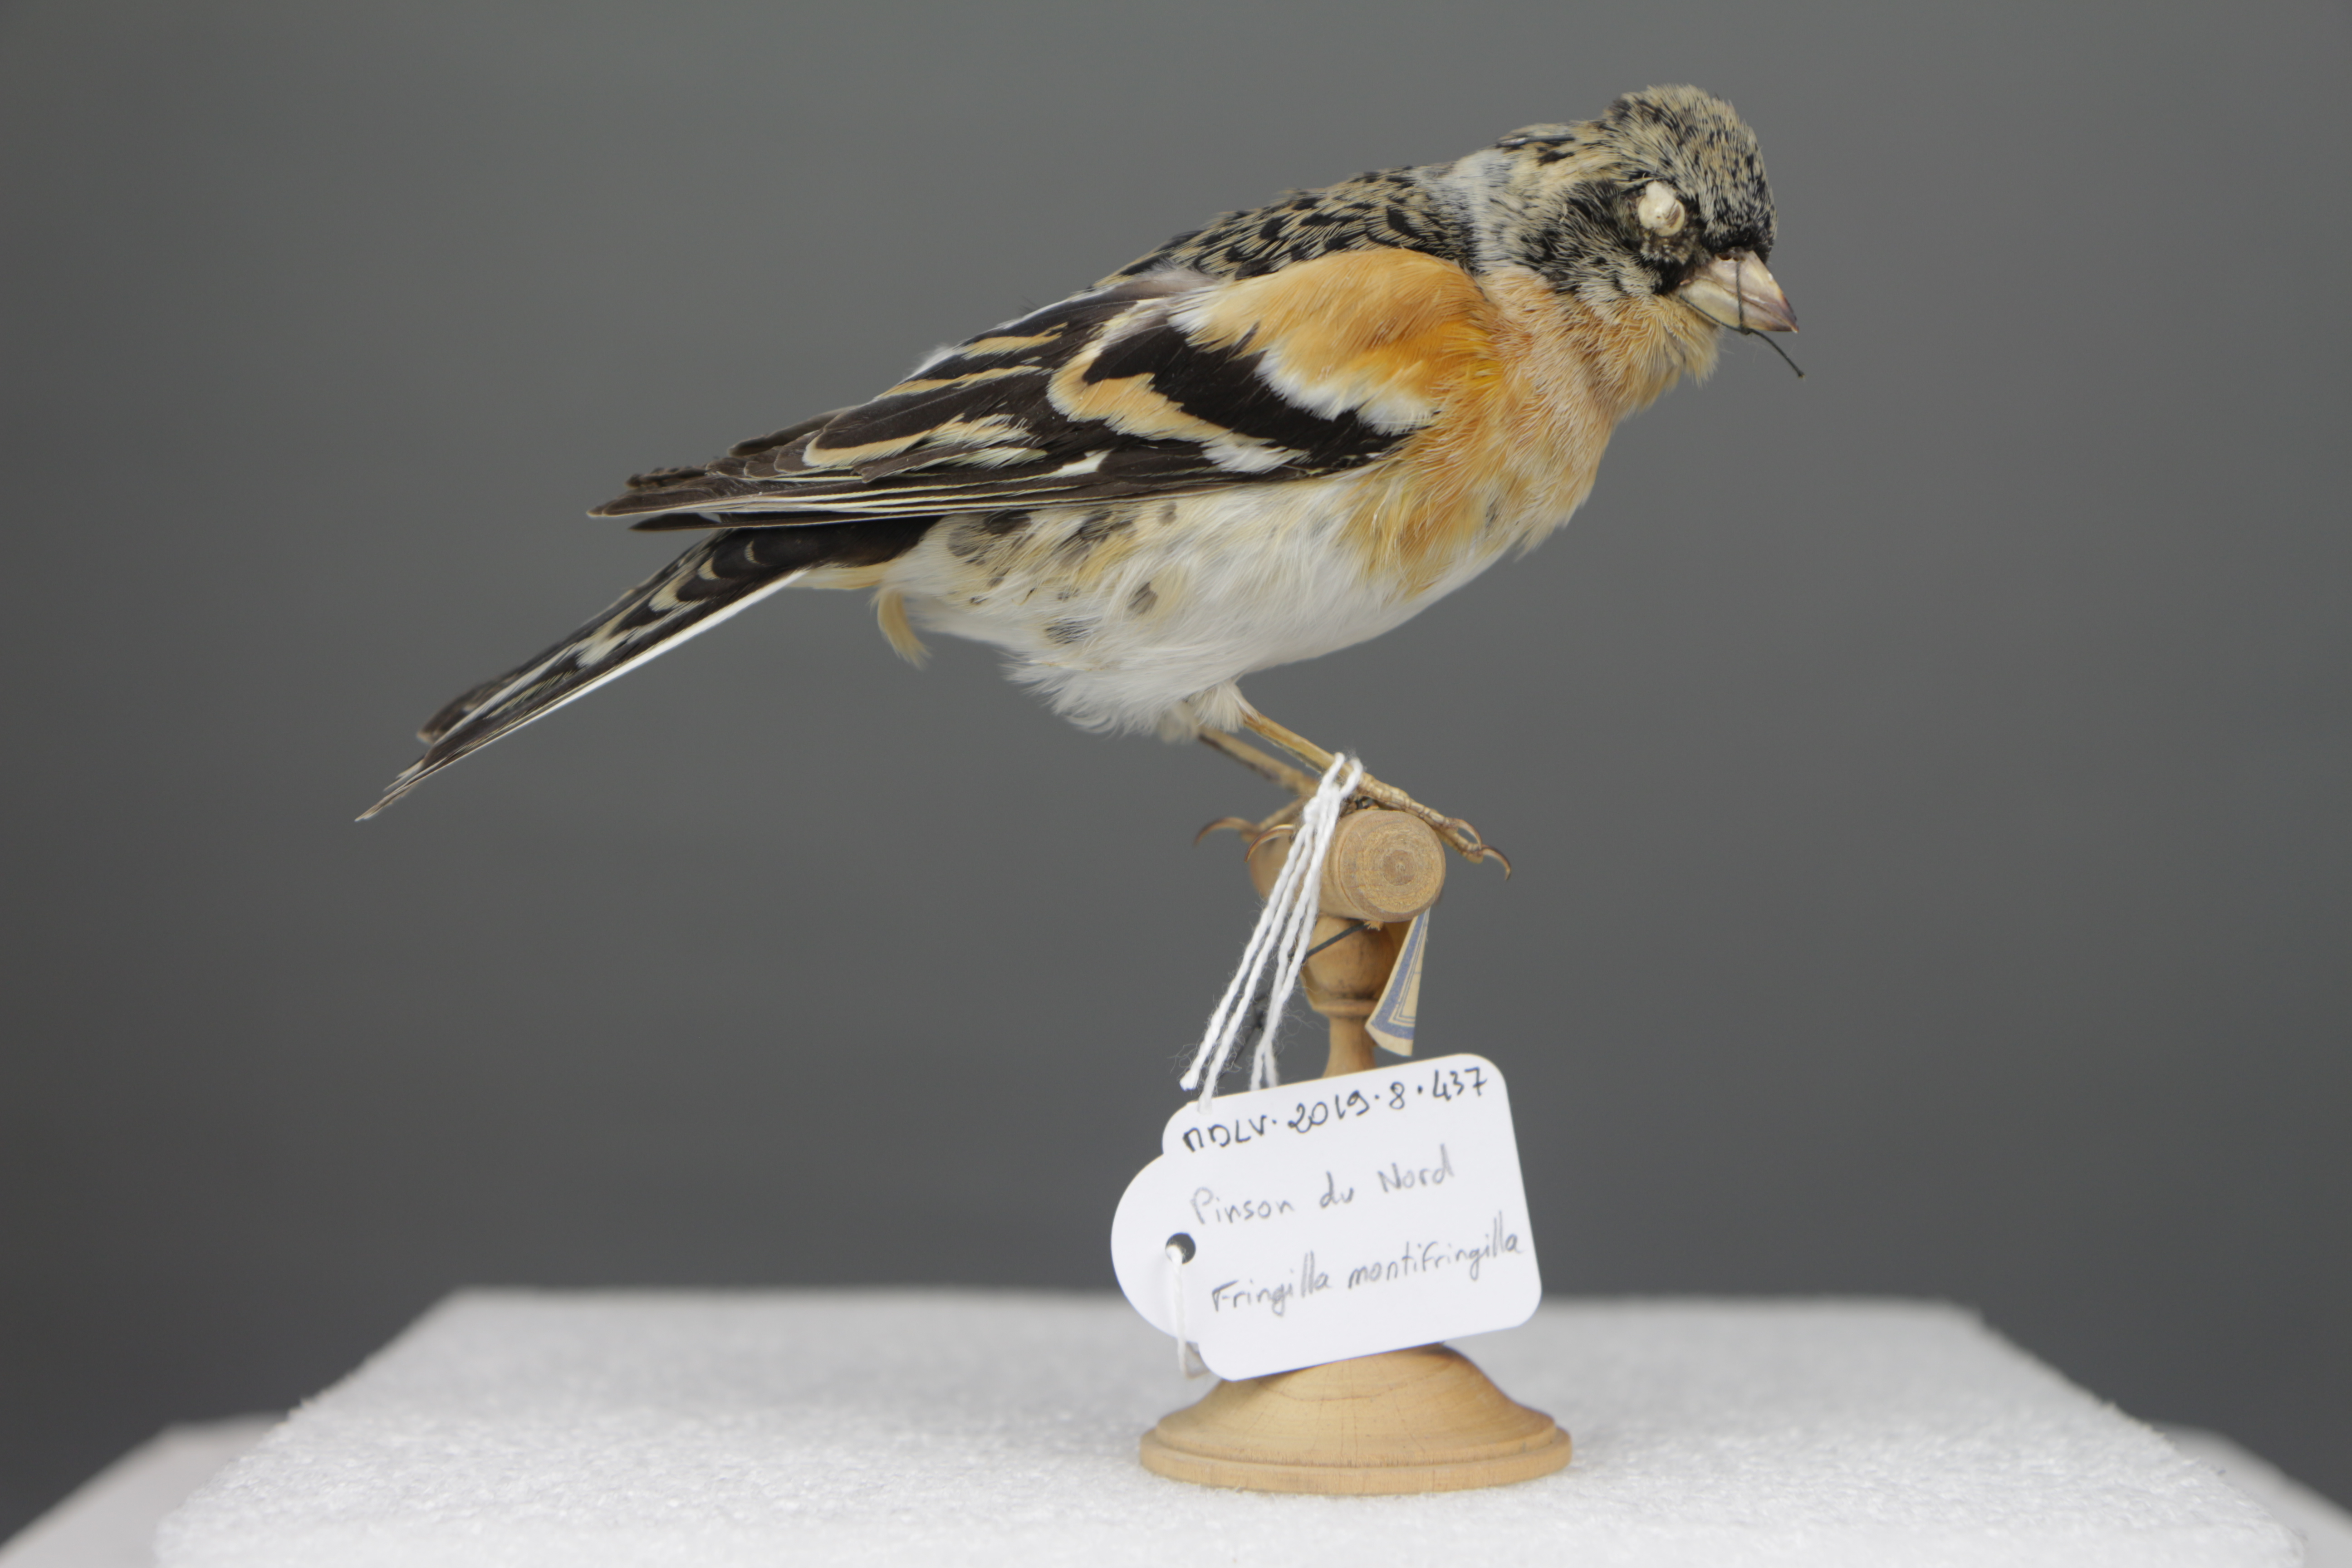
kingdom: Animalia
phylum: Chordata
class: Aves
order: Passeriformes
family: Fringillidae
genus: Fringilla
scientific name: Fringilla montifringilla
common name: Brambling
